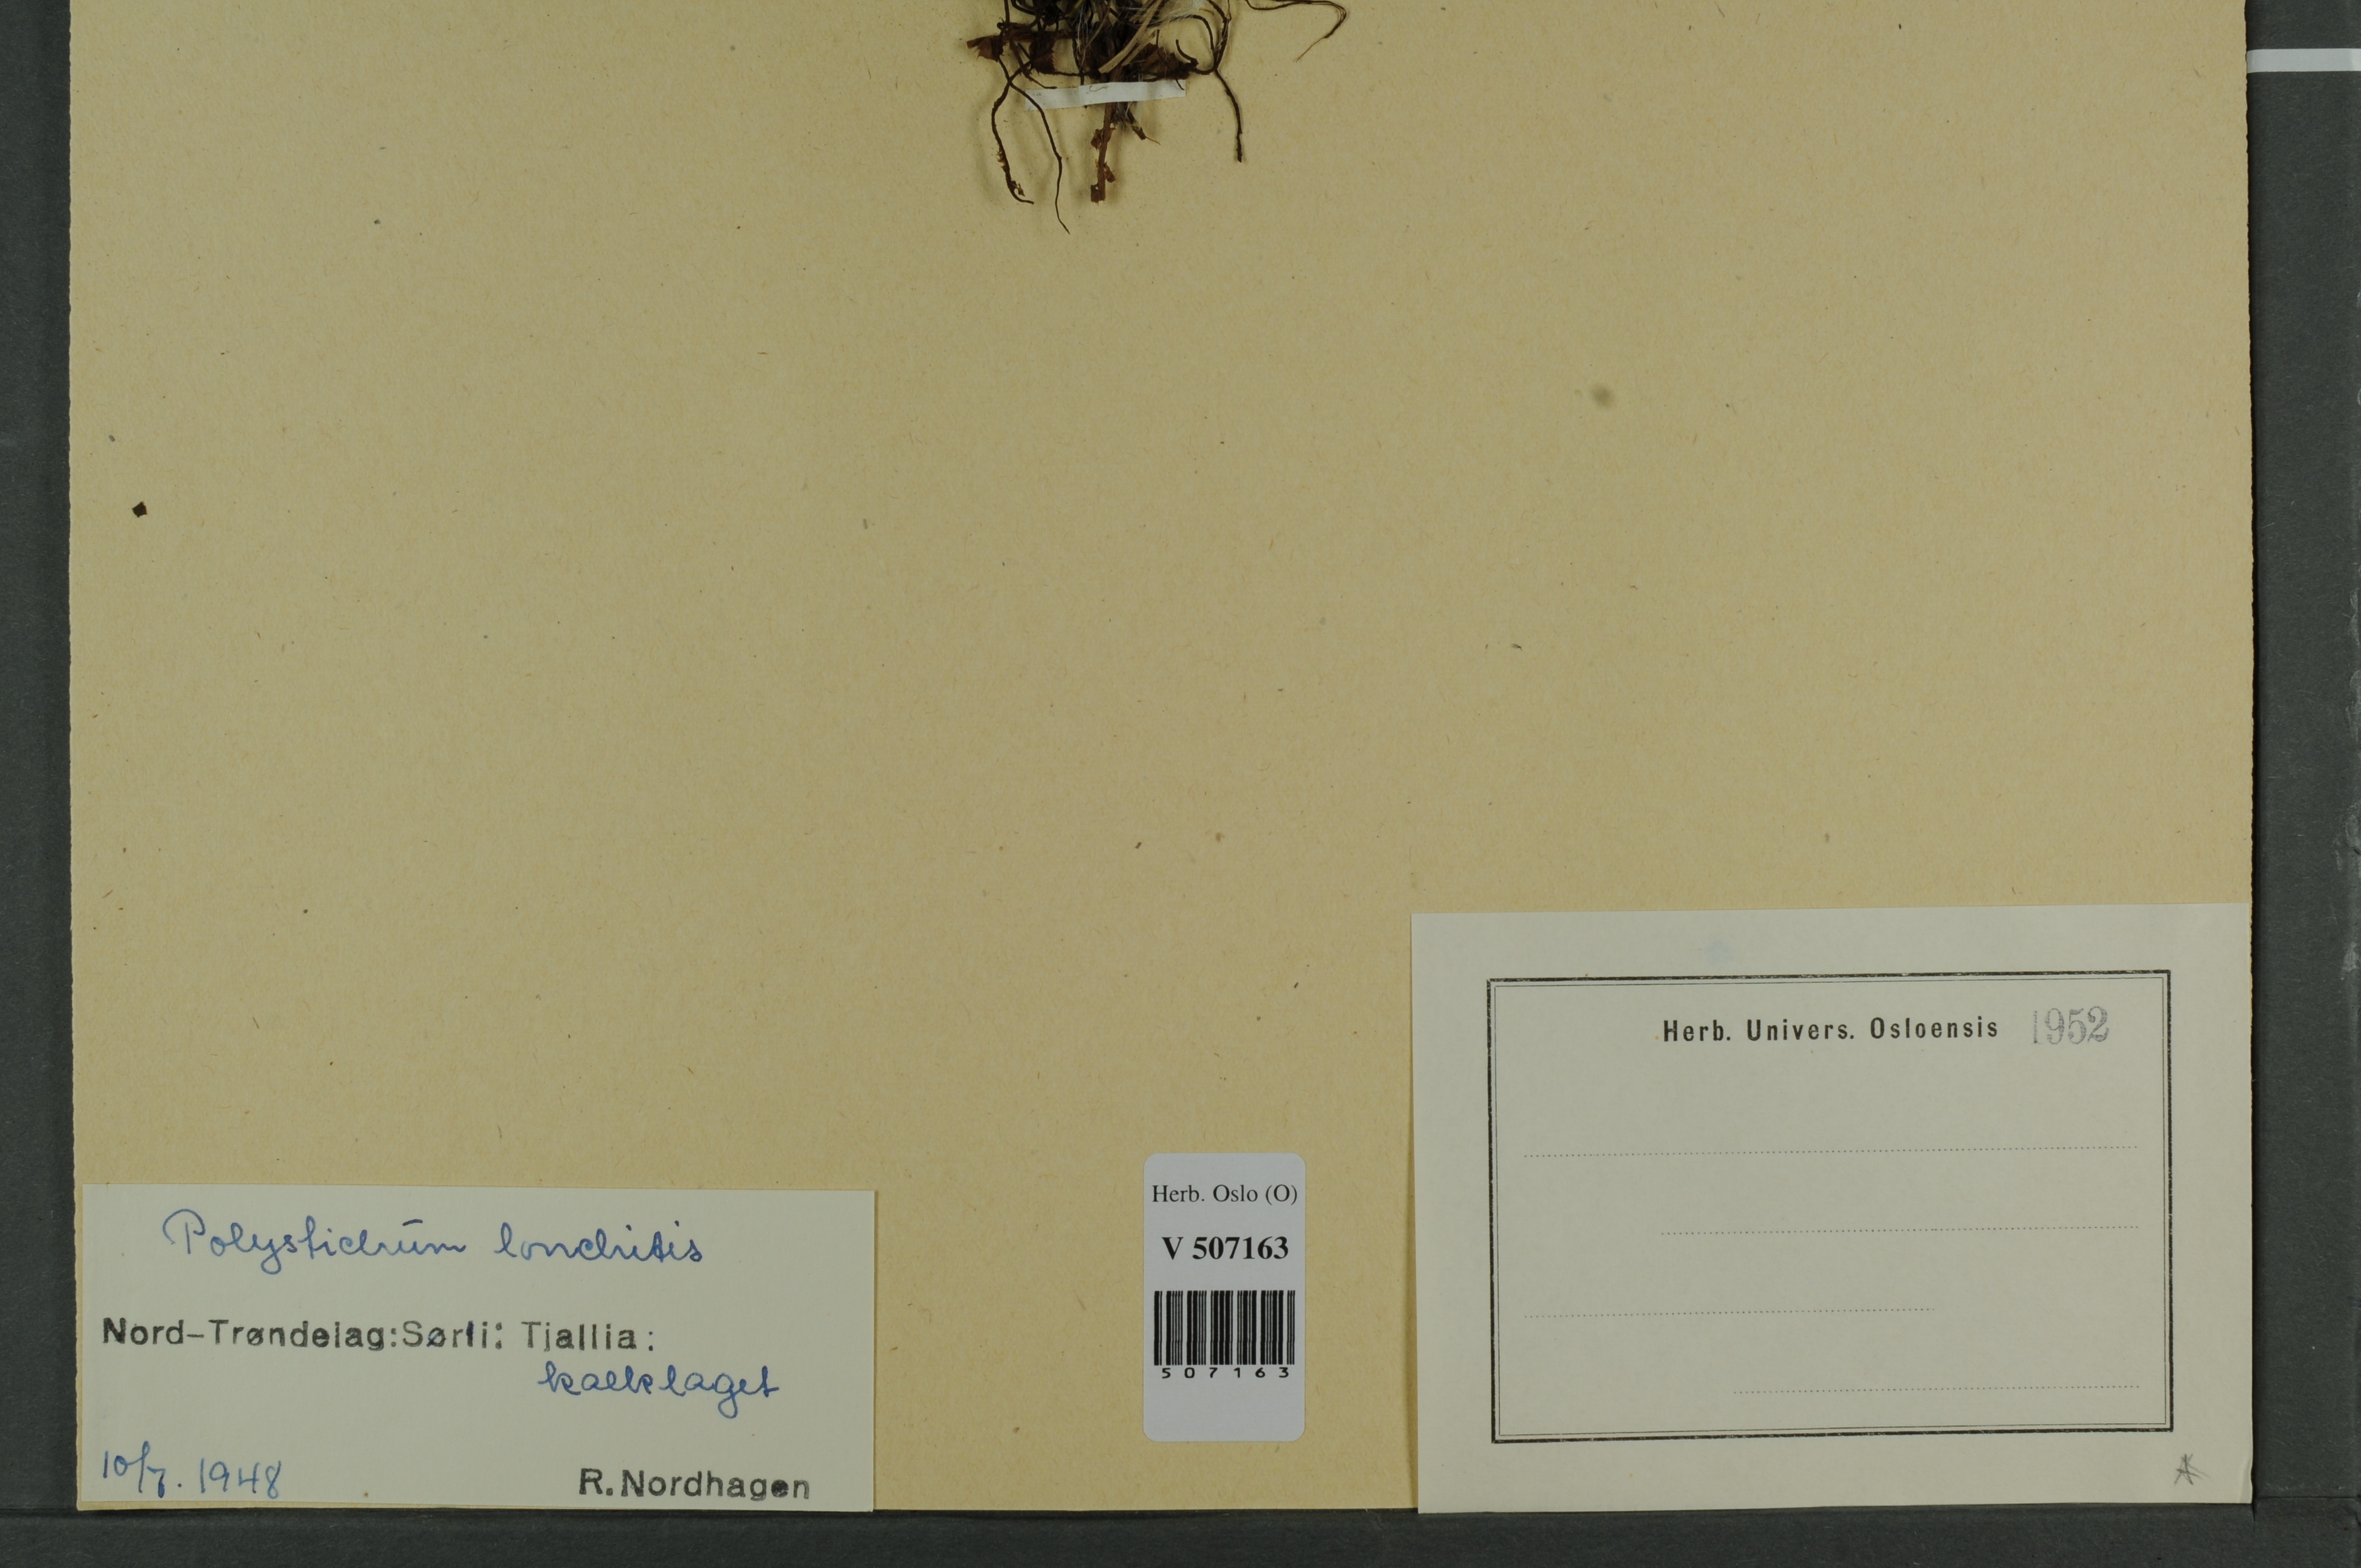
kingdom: Plantae
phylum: Tracheophyta
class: Polypodiopsida
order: Polypodiales
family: Dryopteridaceae
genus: Polystichum
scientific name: Polystichum lonchitis
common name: Holly fern
